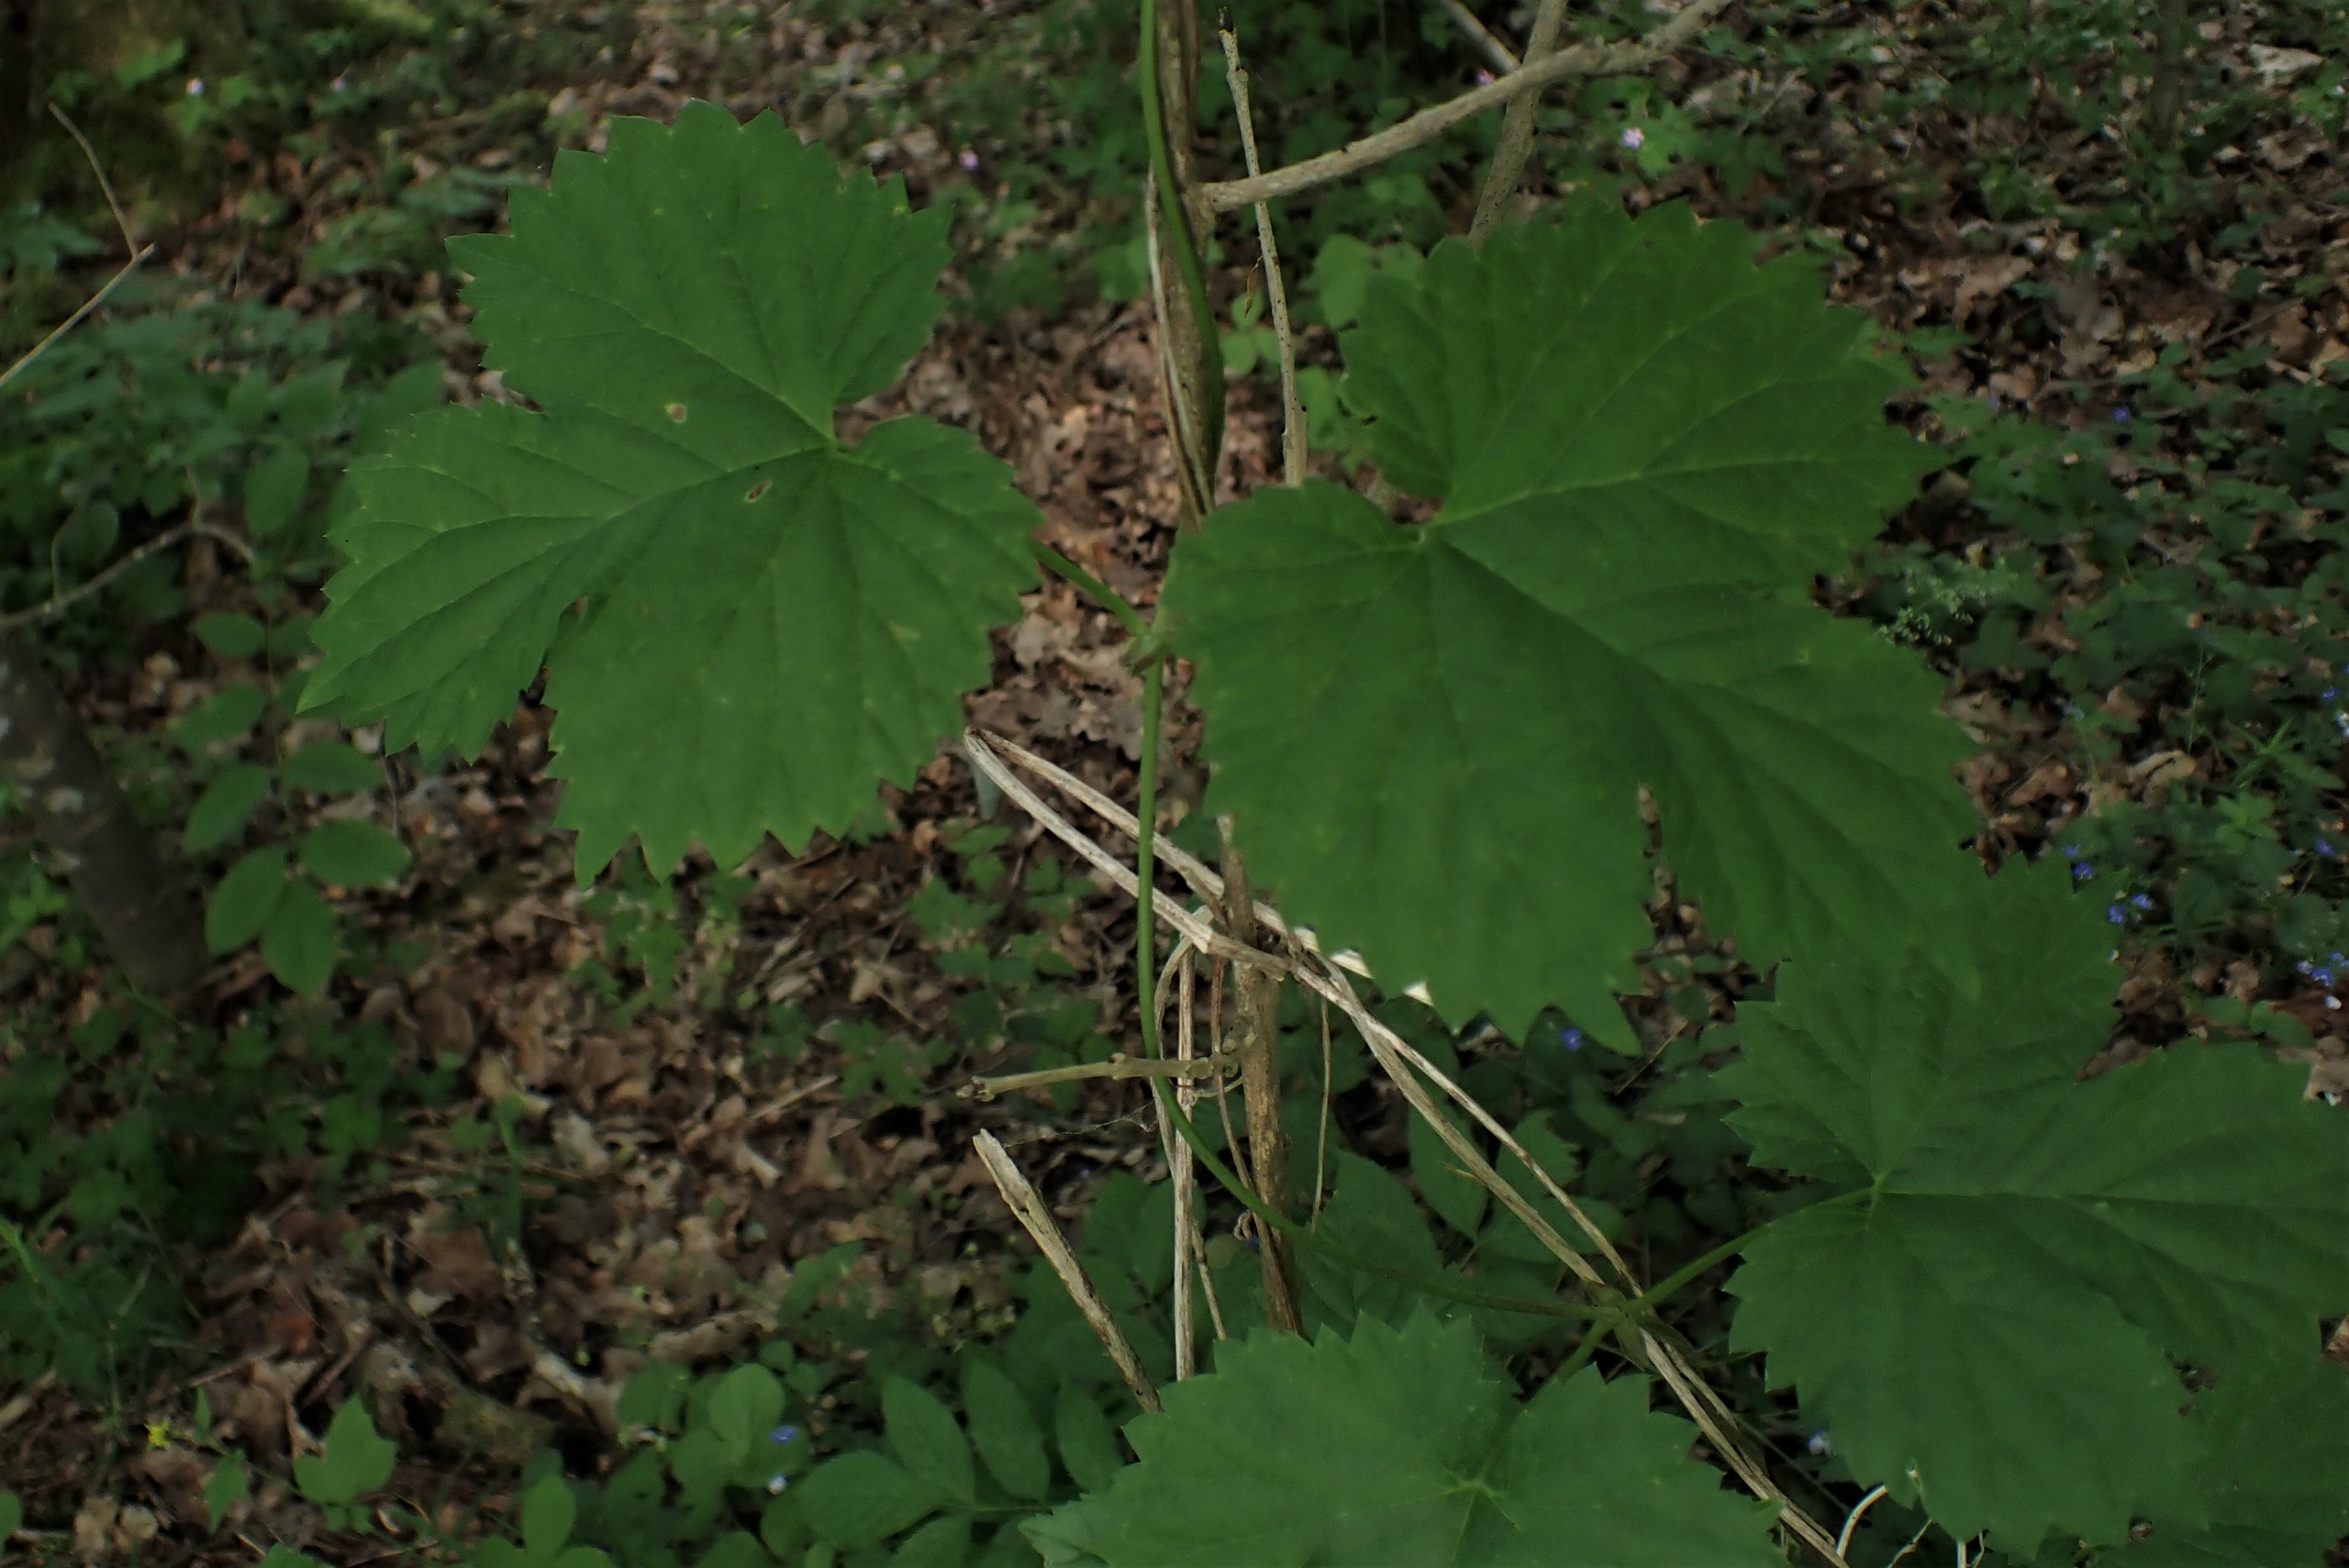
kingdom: Plantae
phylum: Tracheophyta
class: Magnoliopsida
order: Rosales
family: Cannabaceae
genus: Humulus
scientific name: Humulus lupulus
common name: Humle
